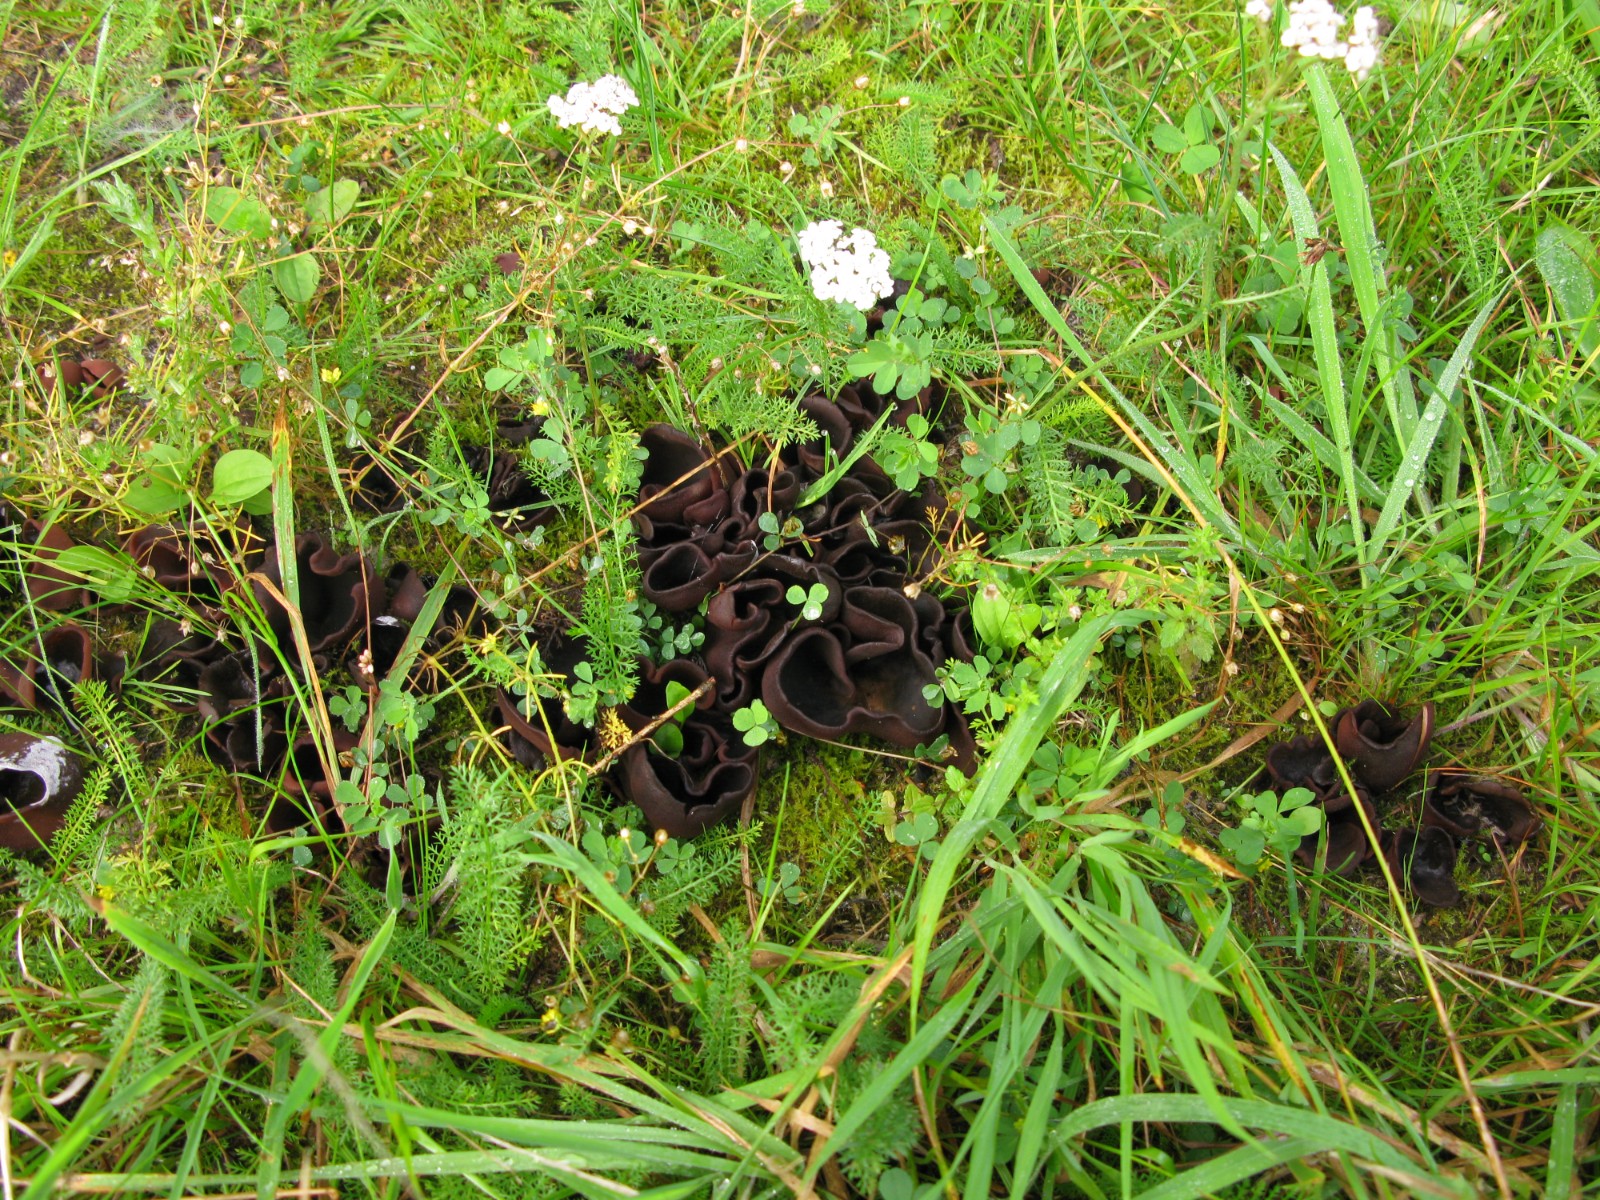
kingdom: Fungi
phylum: Ascomycota
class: Pezizomycetes
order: Pezizales
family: Otideaceae
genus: Otidea
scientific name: Otidea bufonia
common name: brun ørebæger
